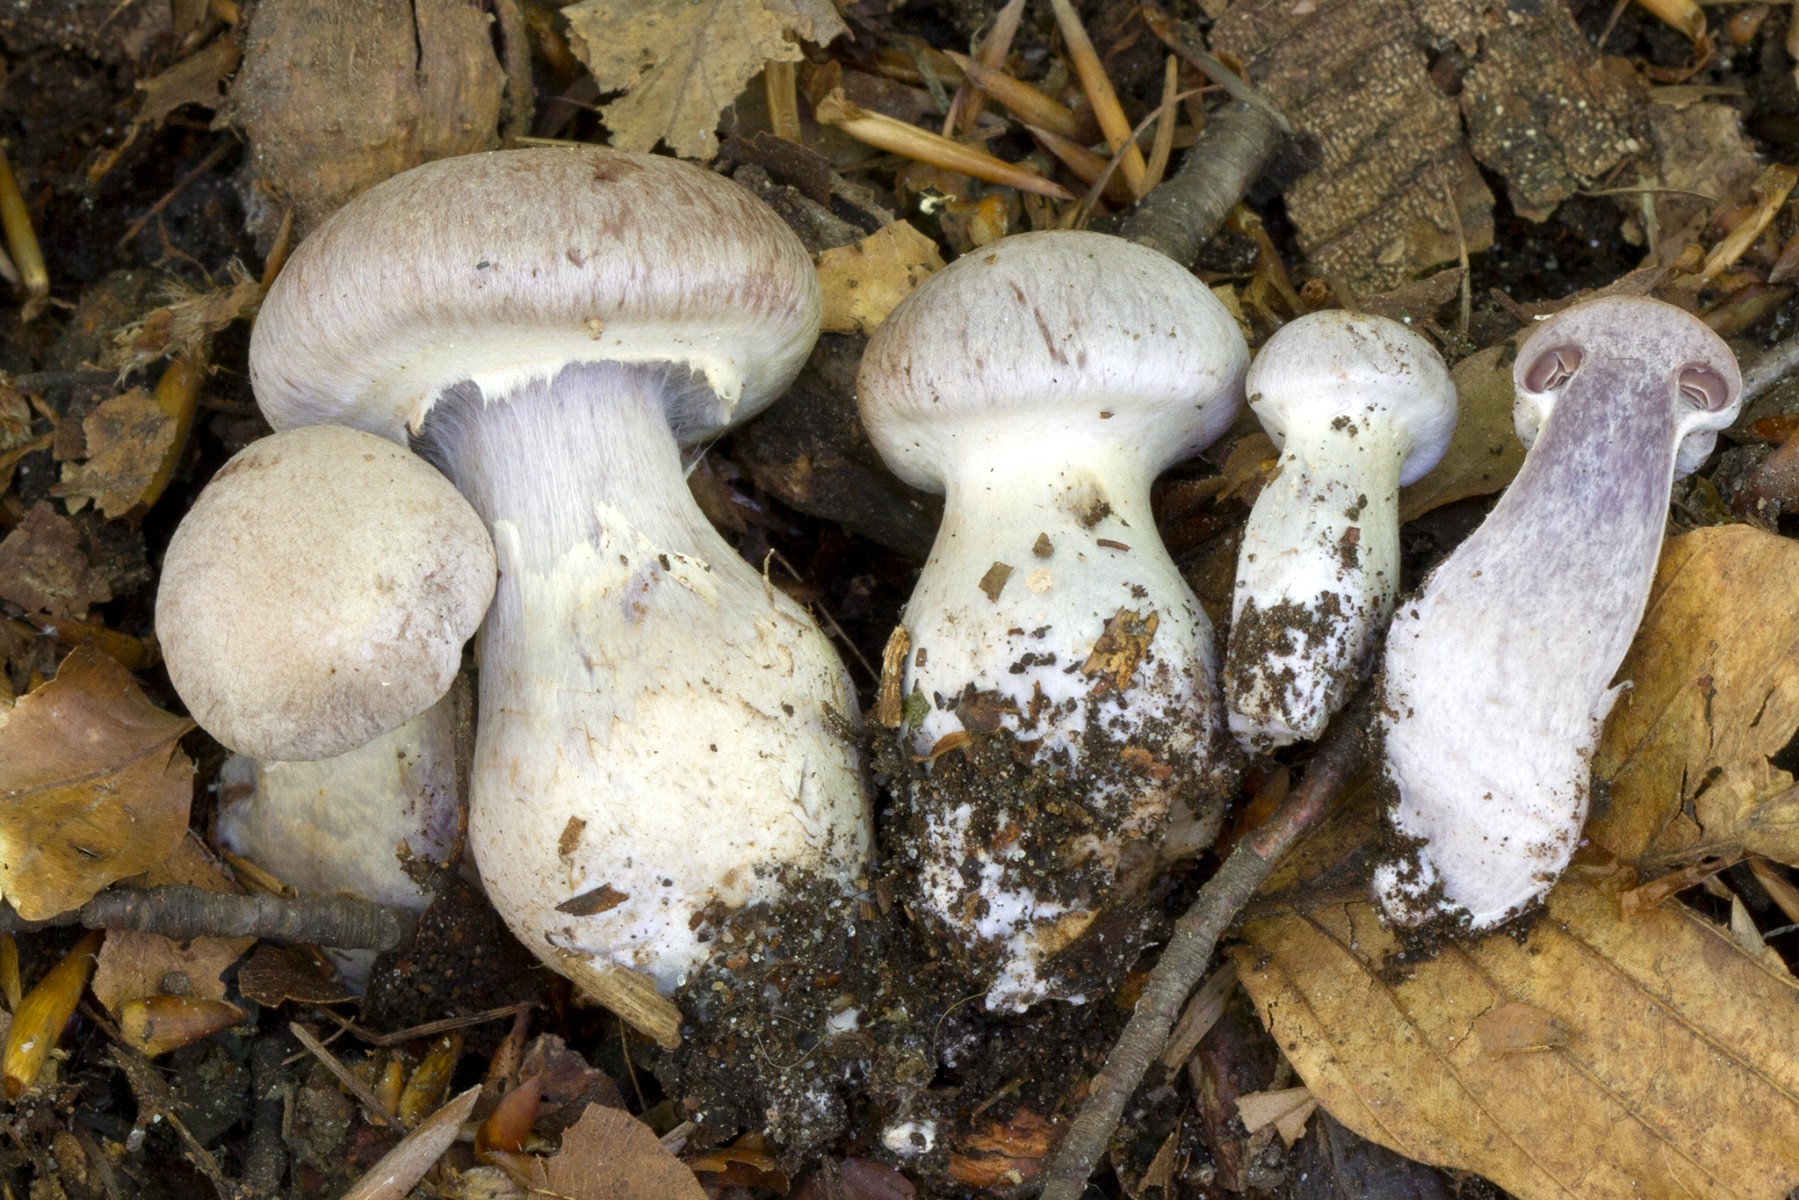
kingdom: Fungi
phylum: Basidiomycota
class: Agaricomycetes
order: Agaricales
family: Cortinariaceae
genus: Cortinarius
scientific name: Cortinarius torvus
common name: champignonagtig slørhat
